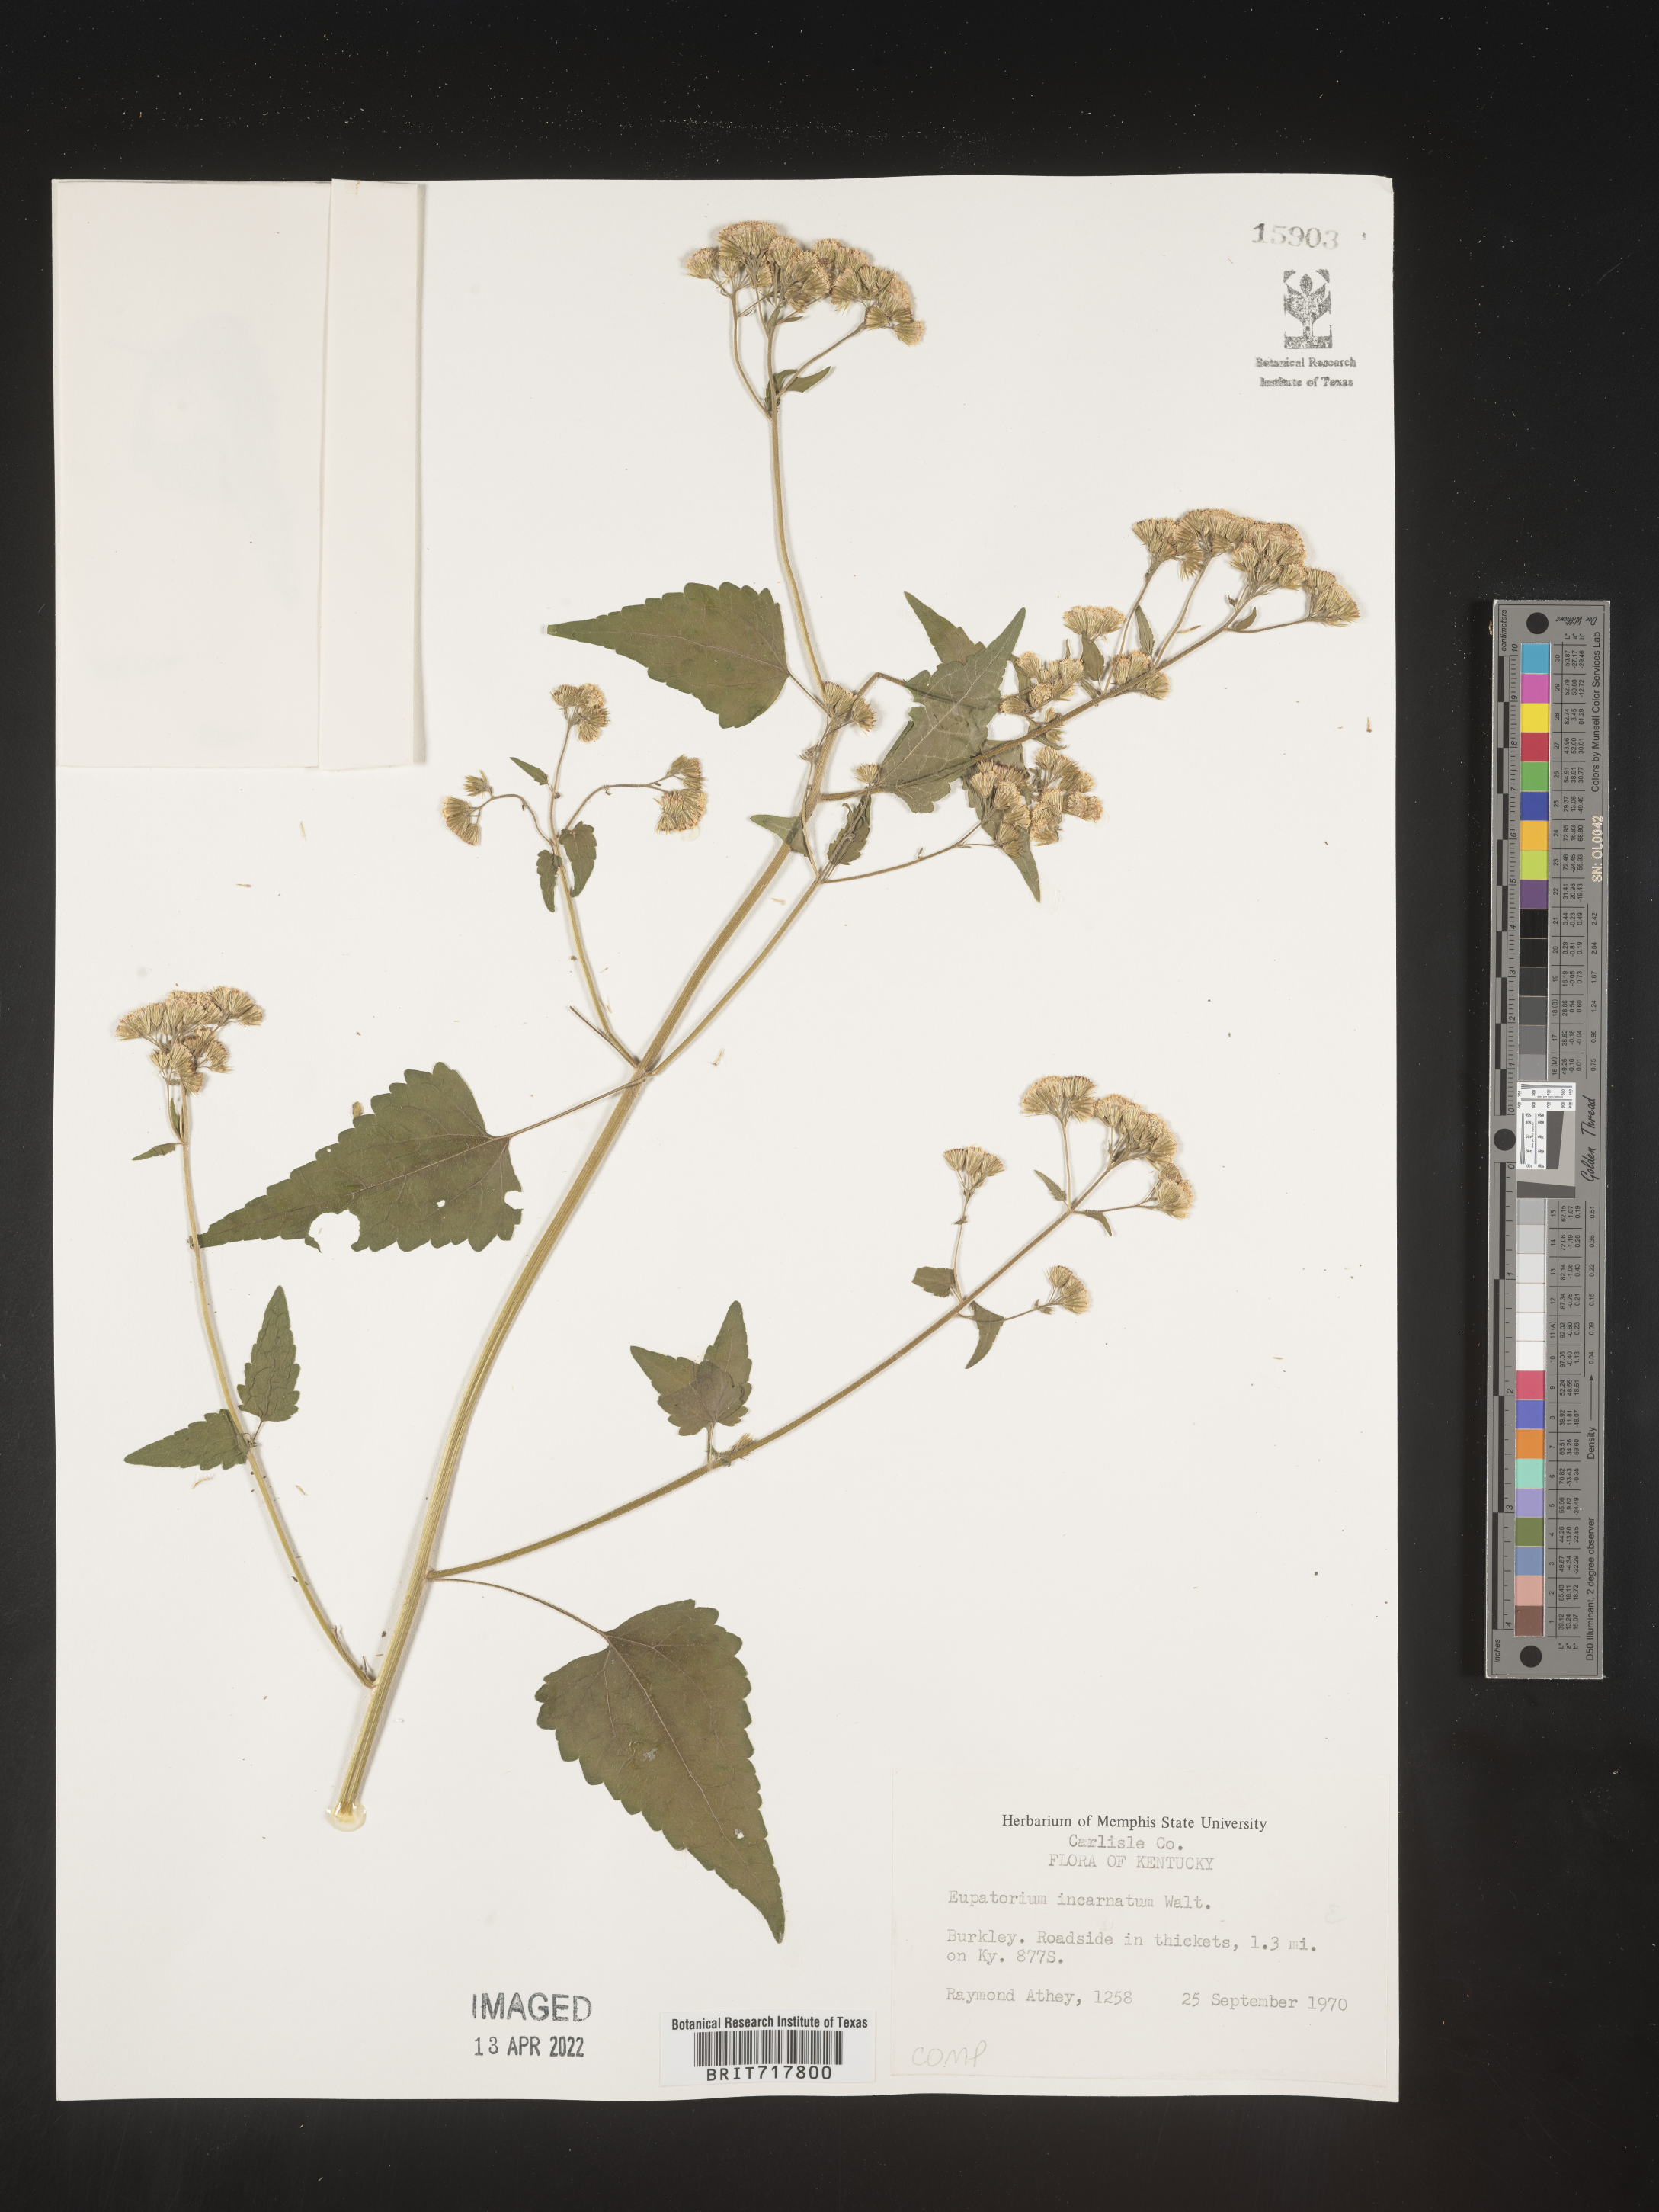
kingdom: Plantae
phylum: Tracheophyta
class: Magnoliopsida
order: Asterales
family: Asteraceae
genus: Fleischmannia
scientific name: Fleischmannia incarnata
